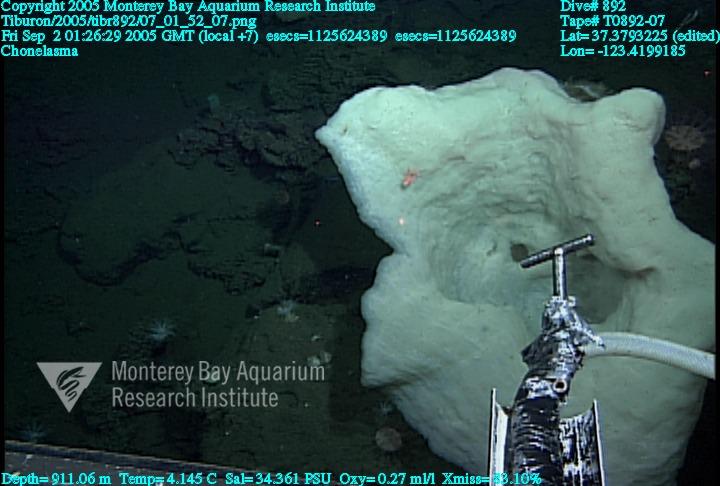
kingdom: Animalia
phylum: Porifera
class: Hexactinellida
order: Sceptrulophora
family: Euretidae
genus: Chonelasma
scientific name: Chonelasma
